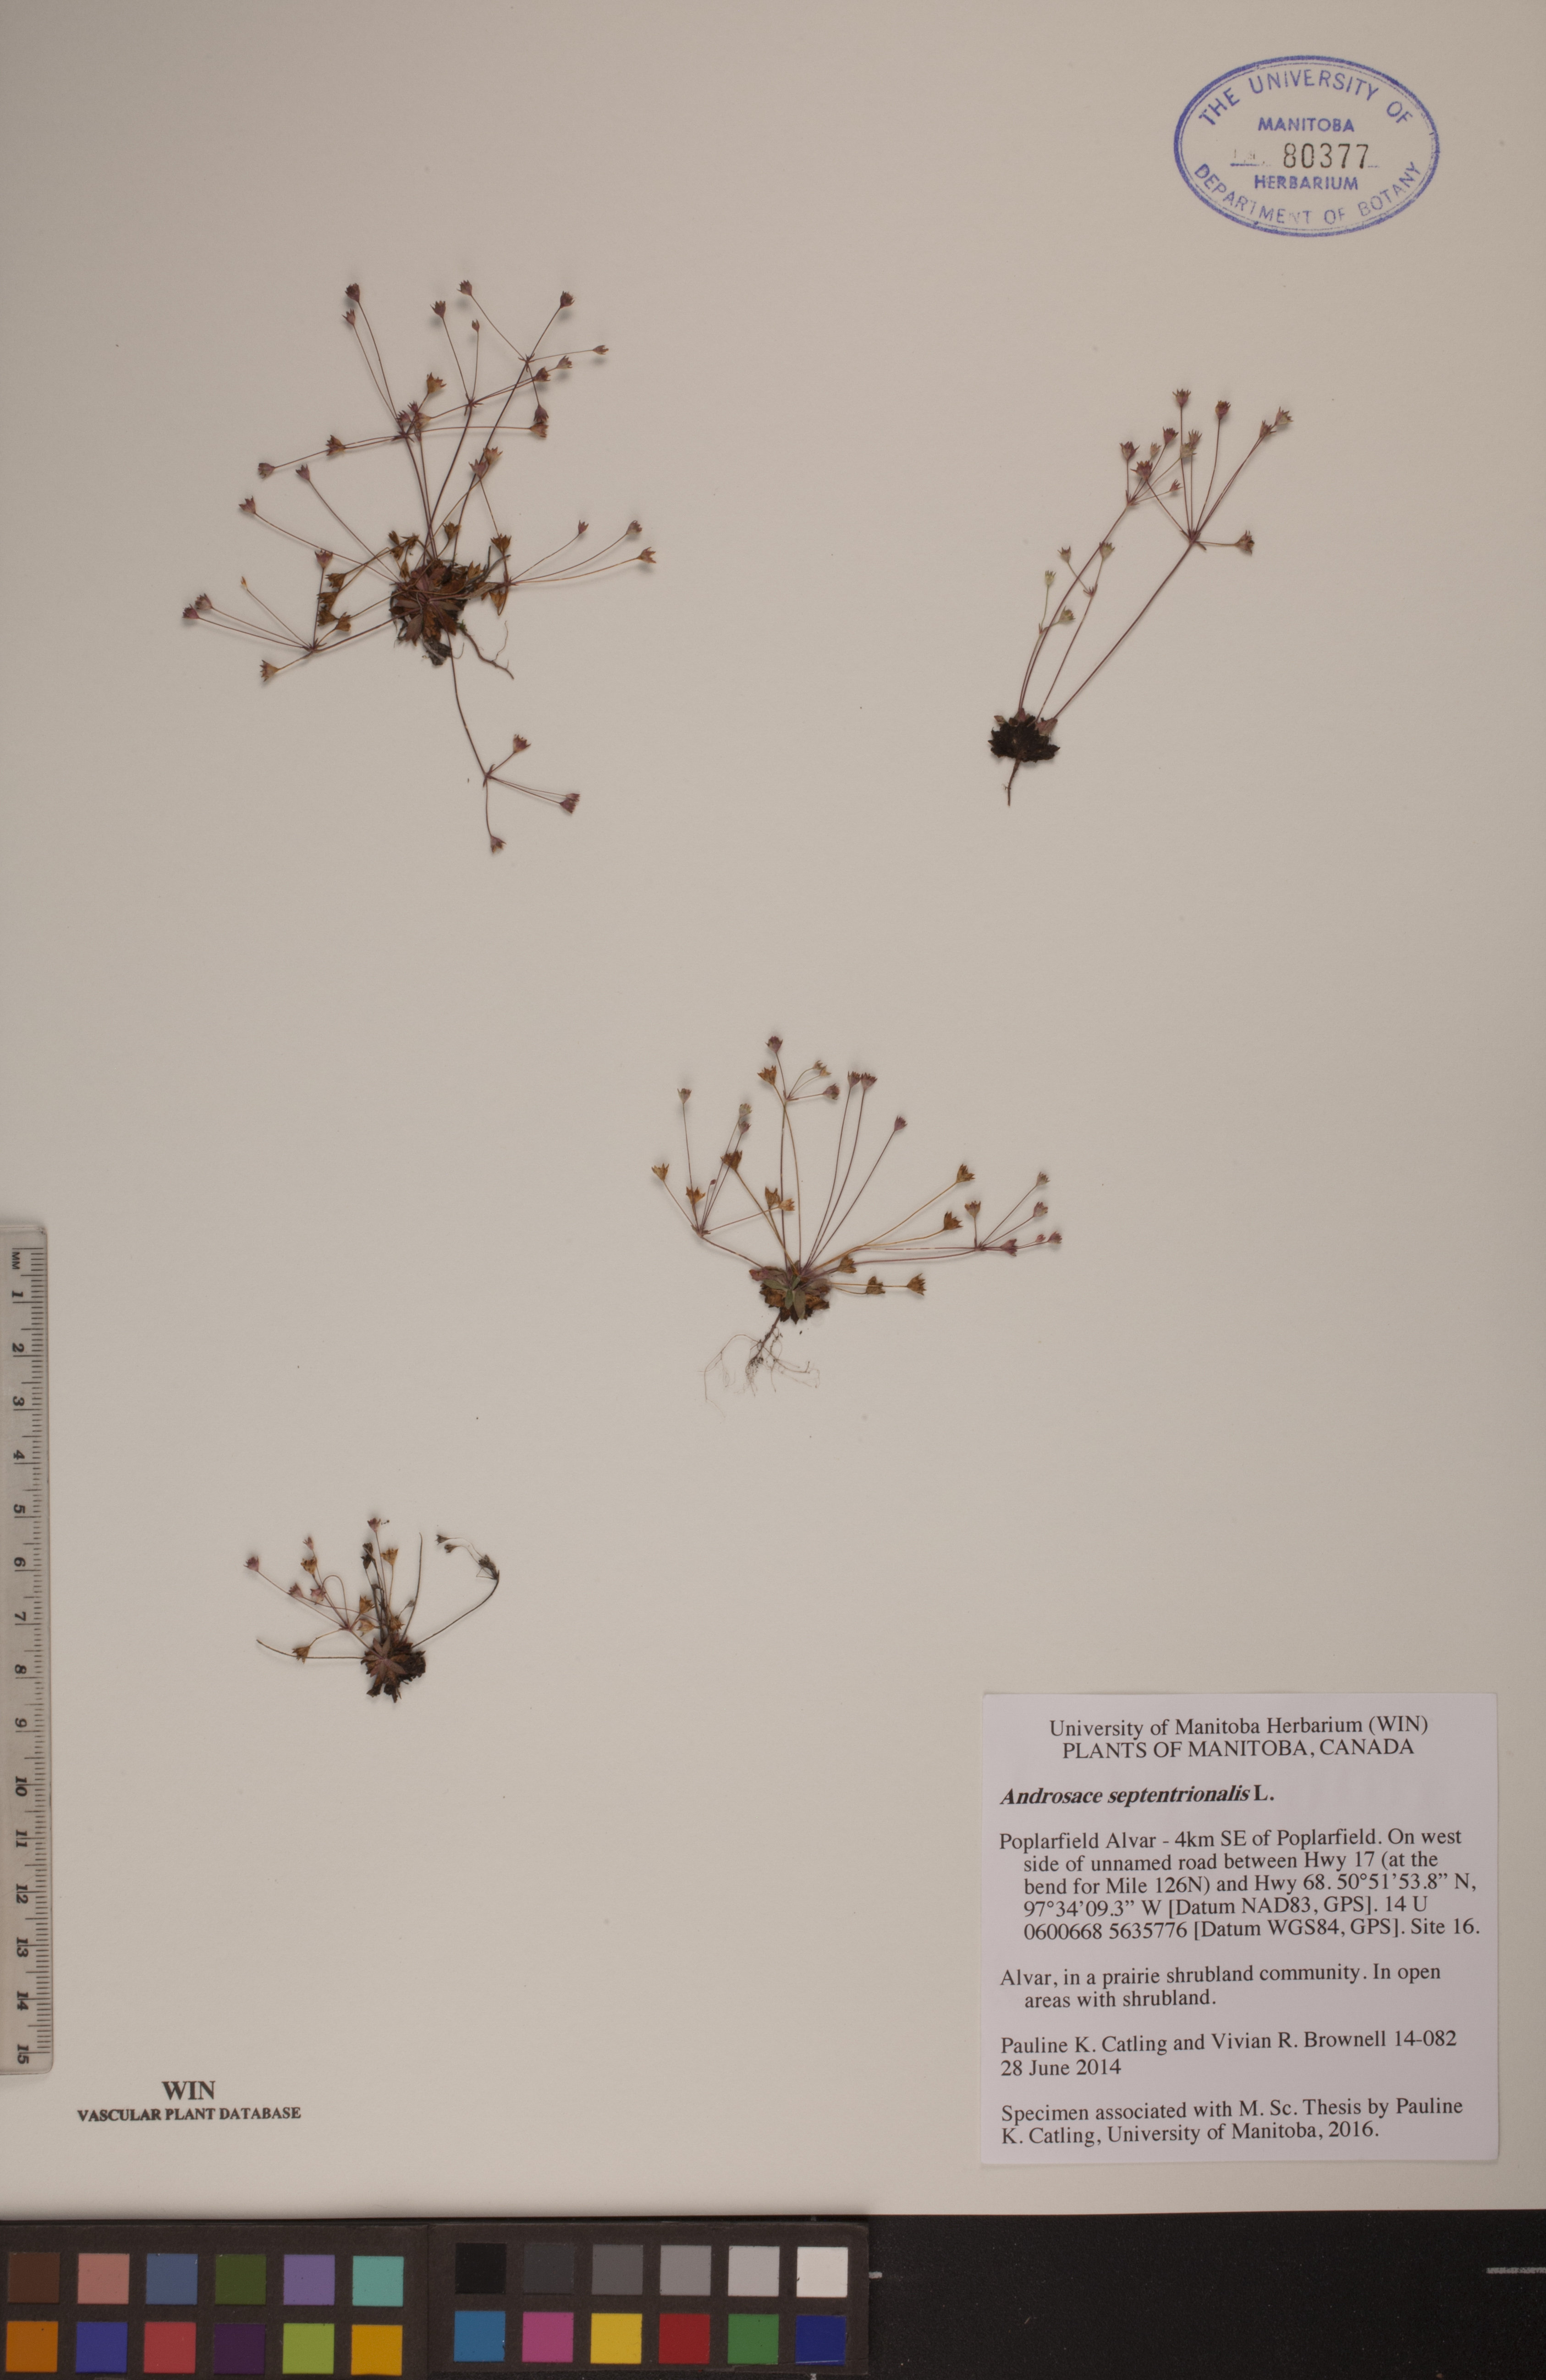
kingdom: Plantae
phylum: Tracheophyta
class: Magnoliopsida
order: Ericales
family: Primulaceae
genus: Androsace
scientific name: Androsace septentrionalis
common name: Hairy northern fairy-candelabra
